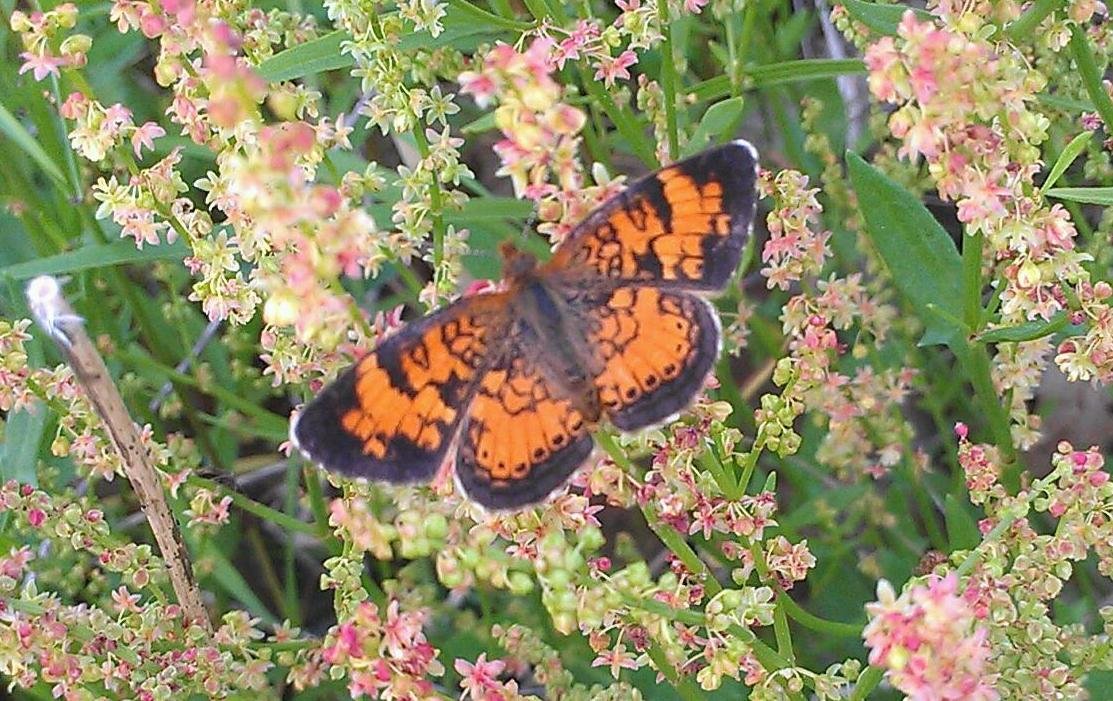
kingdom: Animalia
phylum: Arthropoda
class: Insecta
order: Lepidoptera
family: Nymphalidae
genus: Phyciodes
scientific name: Phyciodes tharos
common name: Northern Crescent
